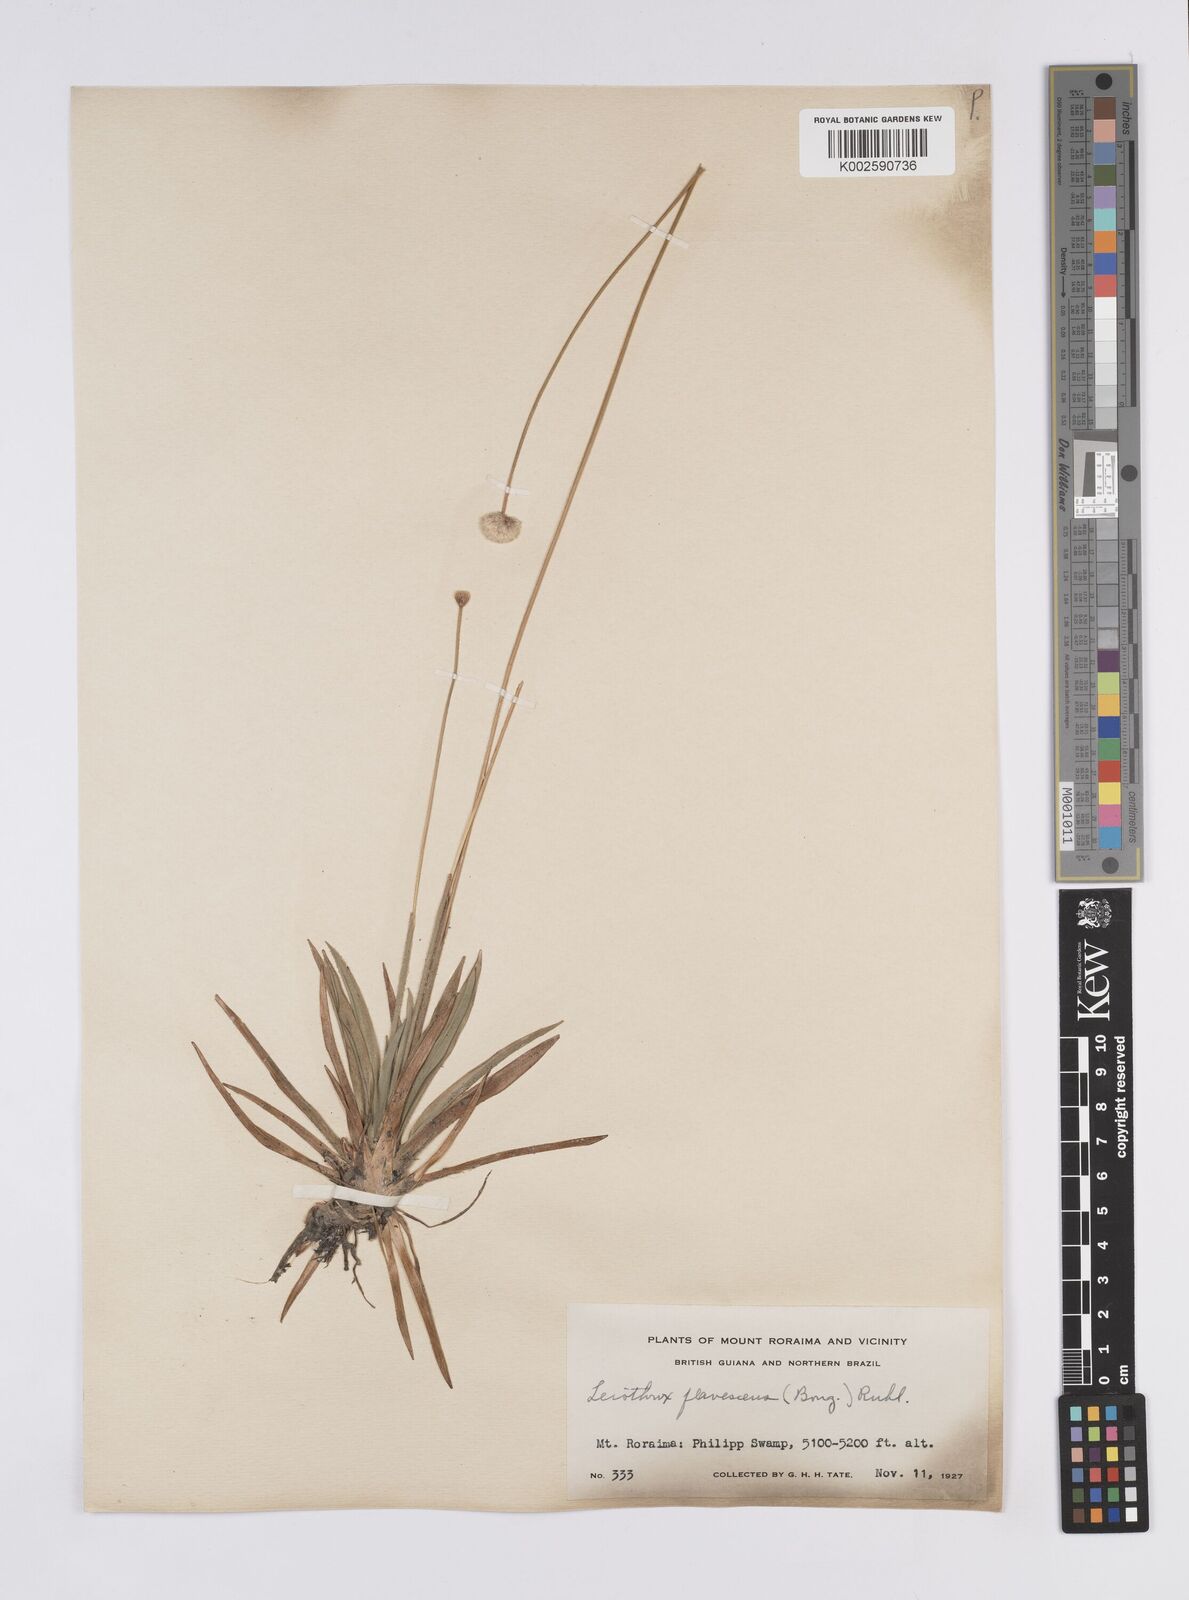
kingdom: Plantae
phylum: Tracheophyta
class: Liliopsida
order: Poales
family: Eriocaulaceae
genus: Leiothrix
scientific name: Leiothrix flavescens
